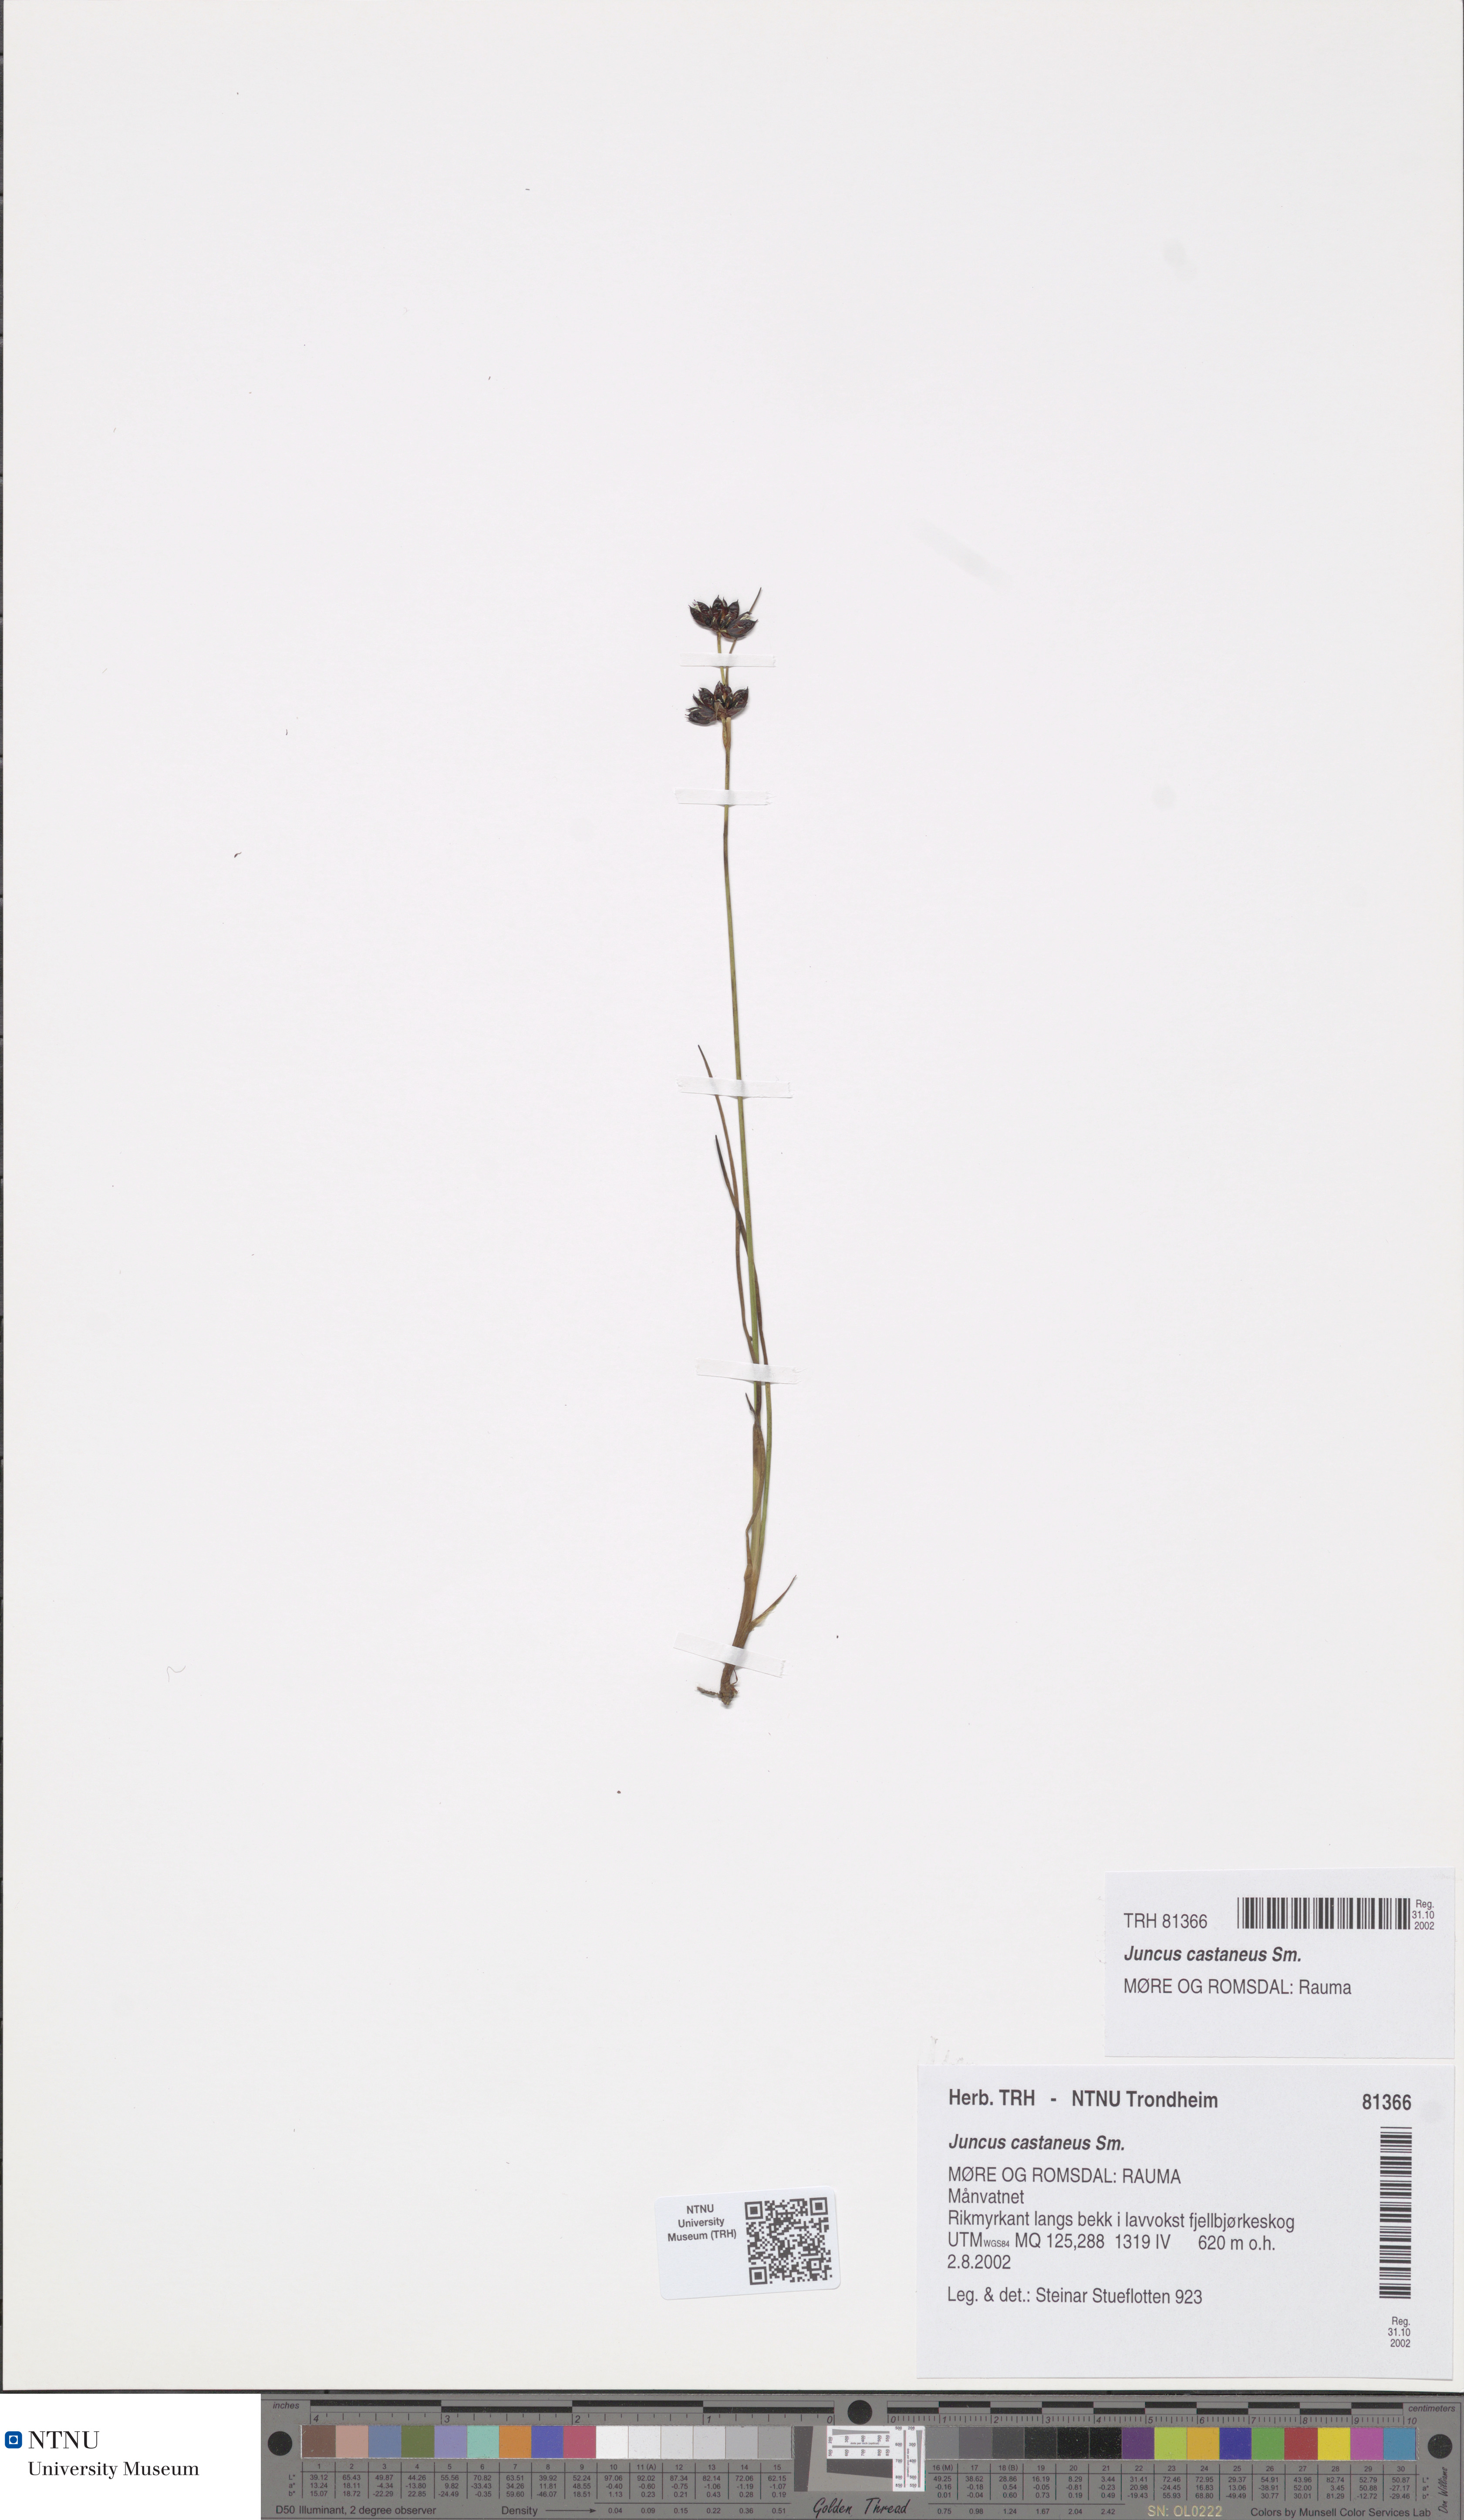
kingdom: Plantae
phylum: Tracheophyta
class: Liliopsida
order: Poales
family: Juncaceae
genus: Juncus
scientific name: Juncus castaneus
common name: Chestnut rush
